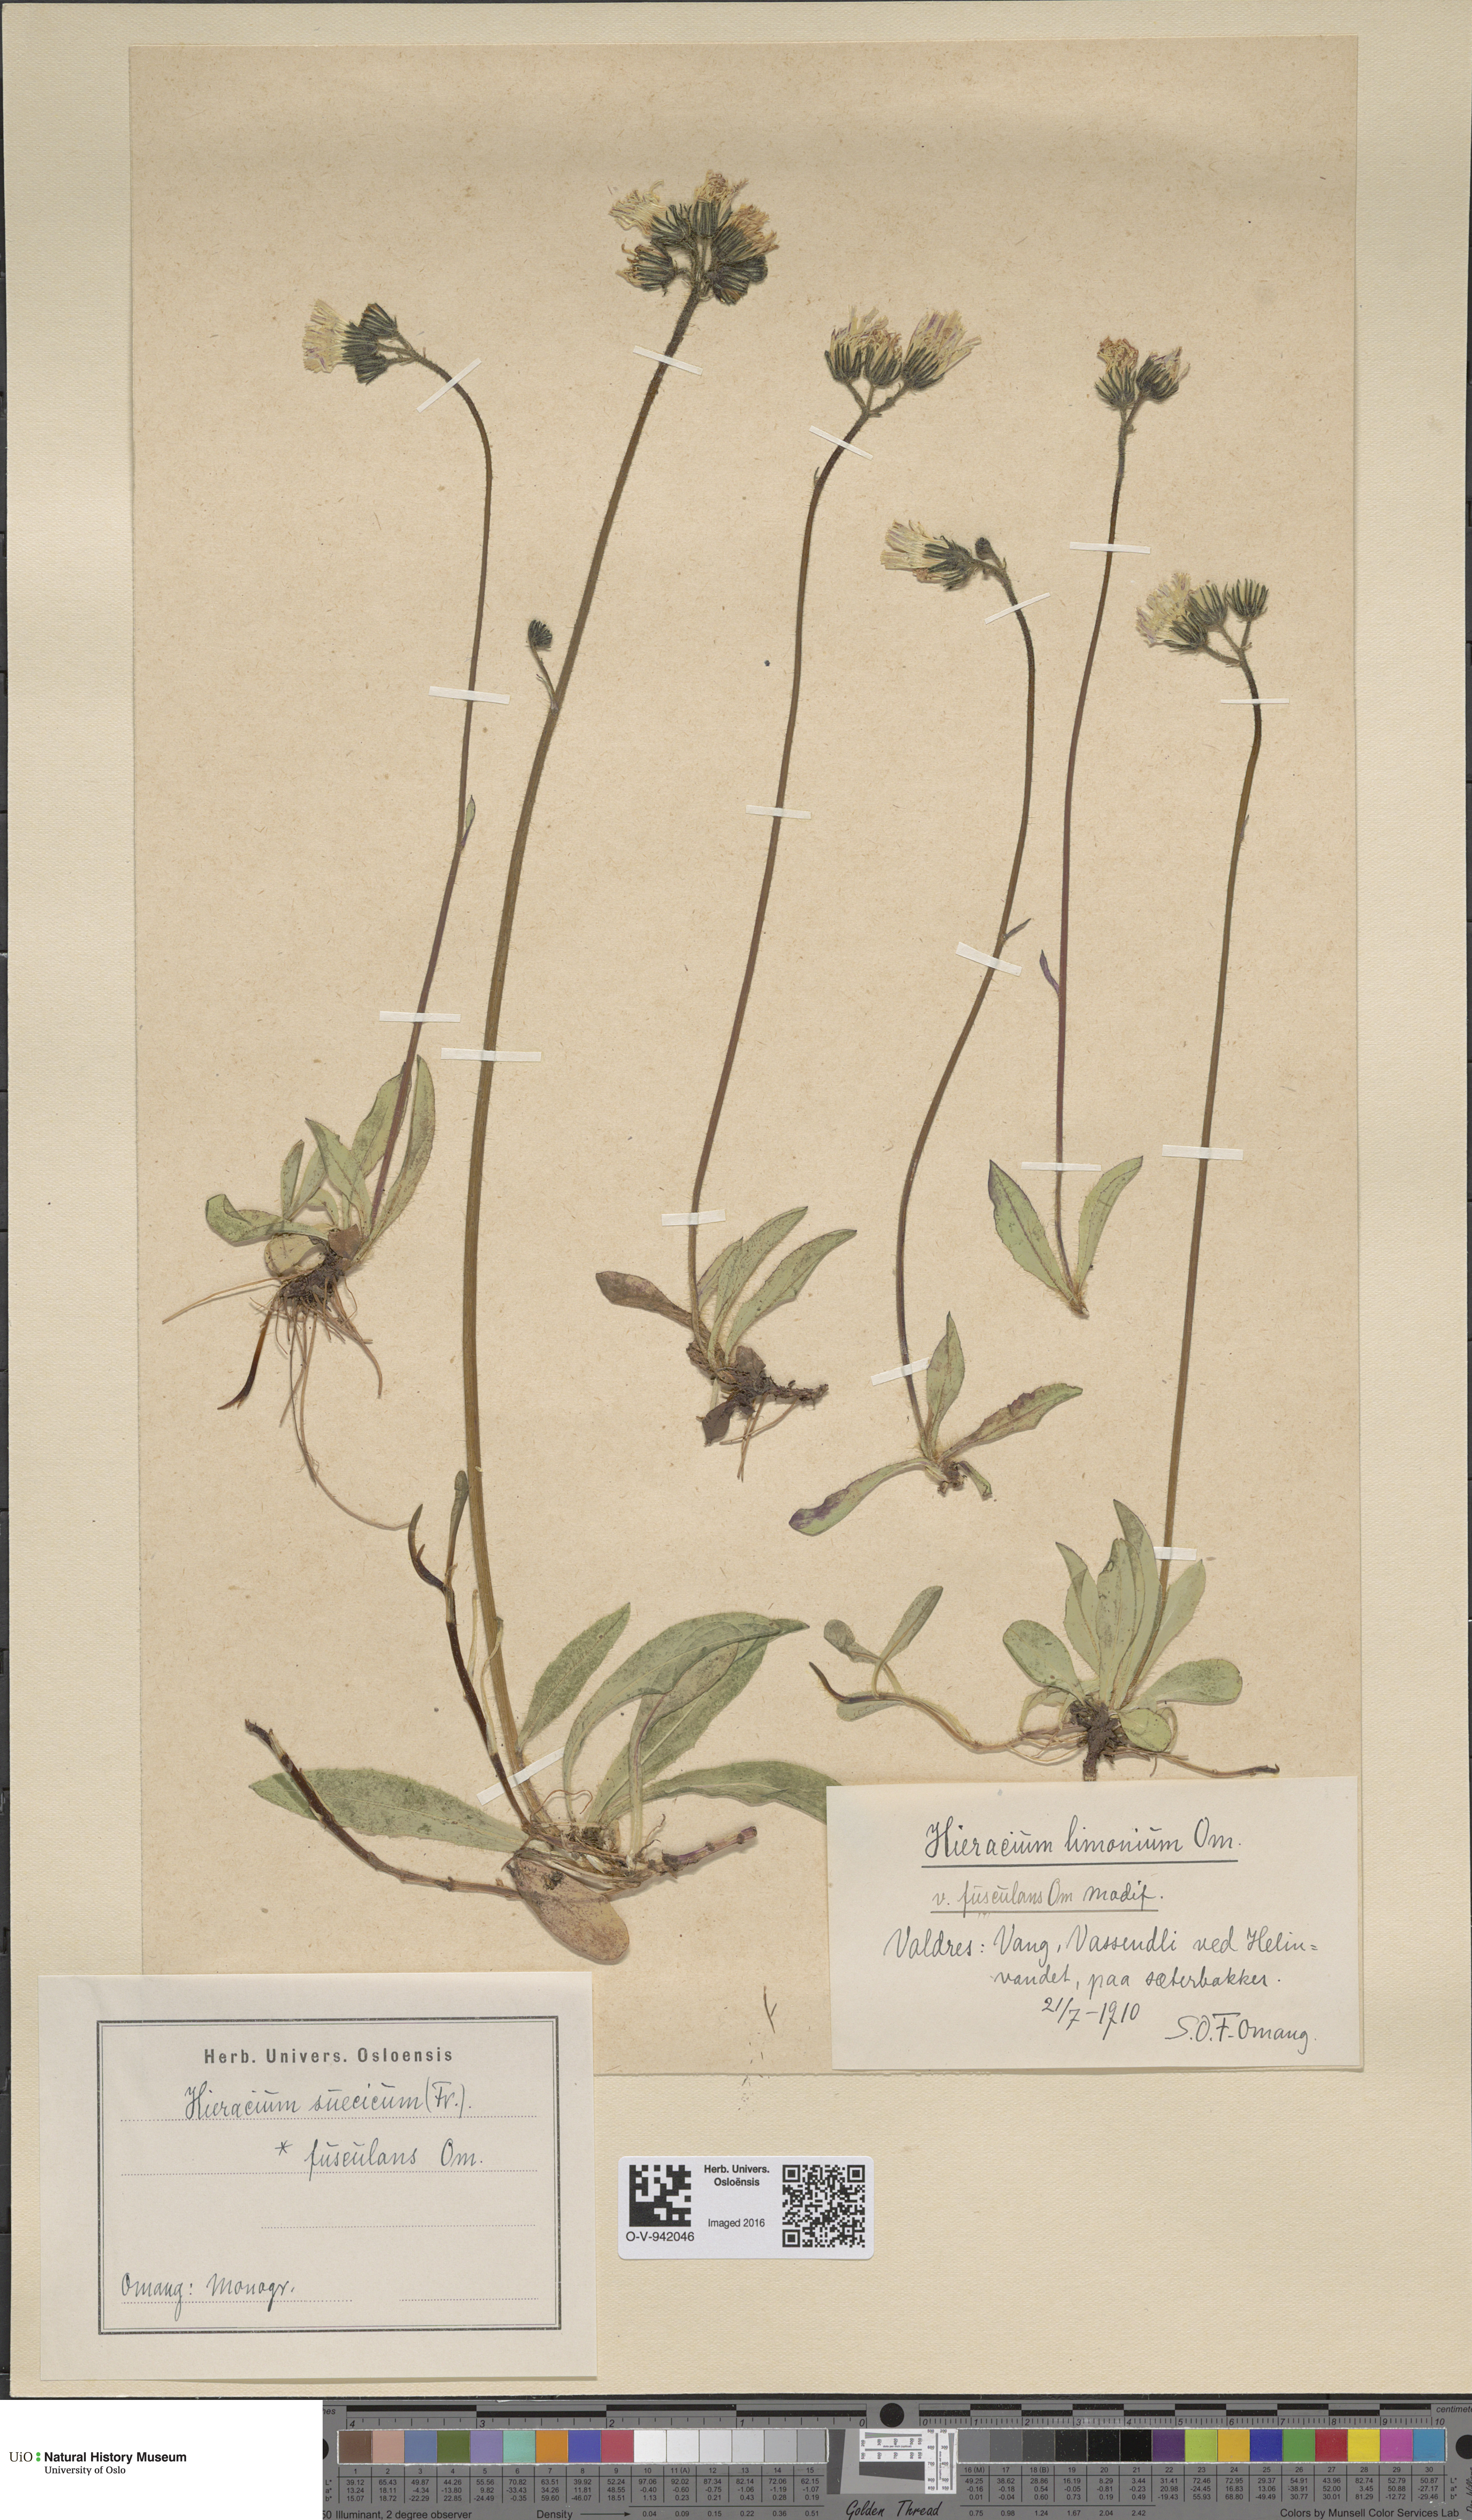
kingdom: Plantae
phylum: Tracheophyta
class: Magnoliopsida
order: Asterales
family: Asteraceae
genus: Pilosella
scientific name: Pilosella dubia
